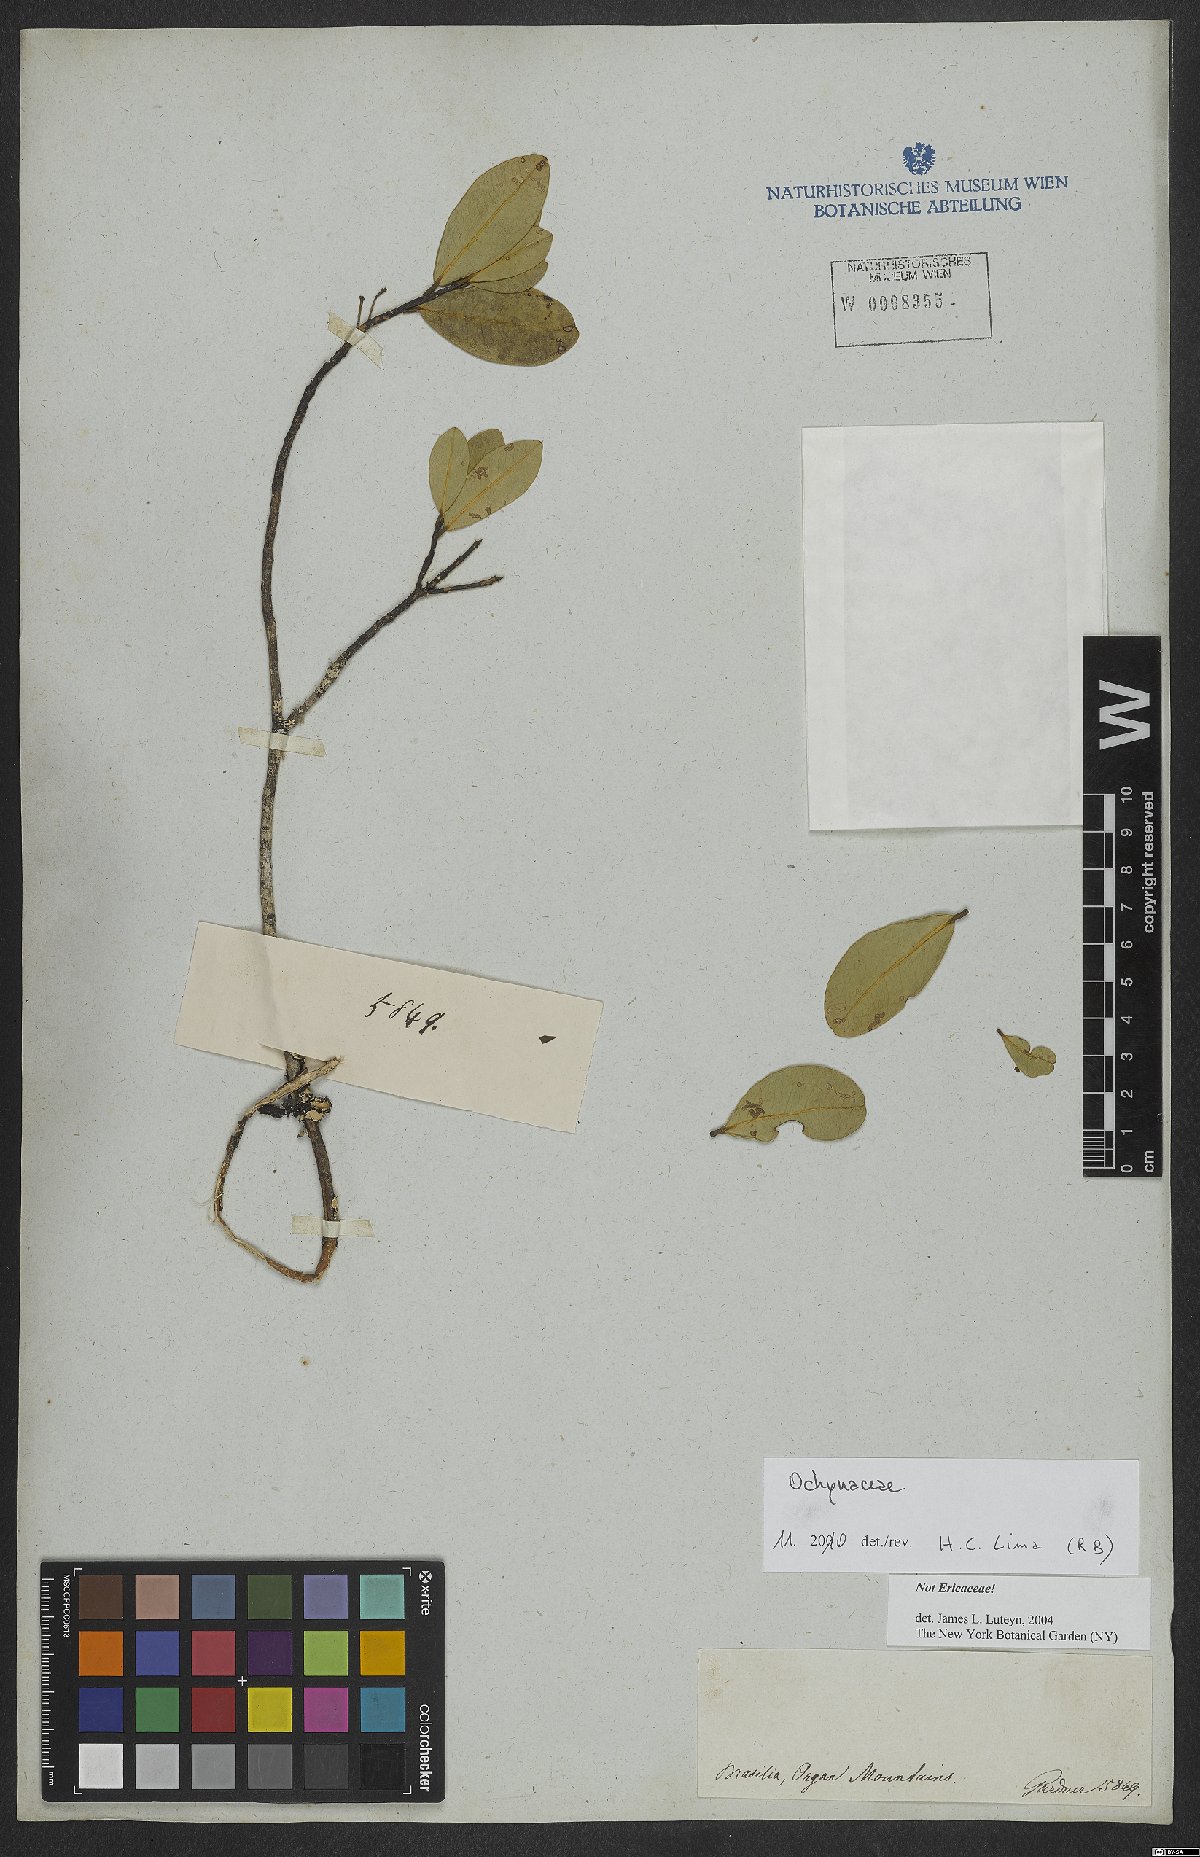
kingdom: Plantae
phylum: Tracheophyta
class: Magnoliopsida
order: Malpighiales
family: Ochnaceae
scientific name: Ochnaceae
